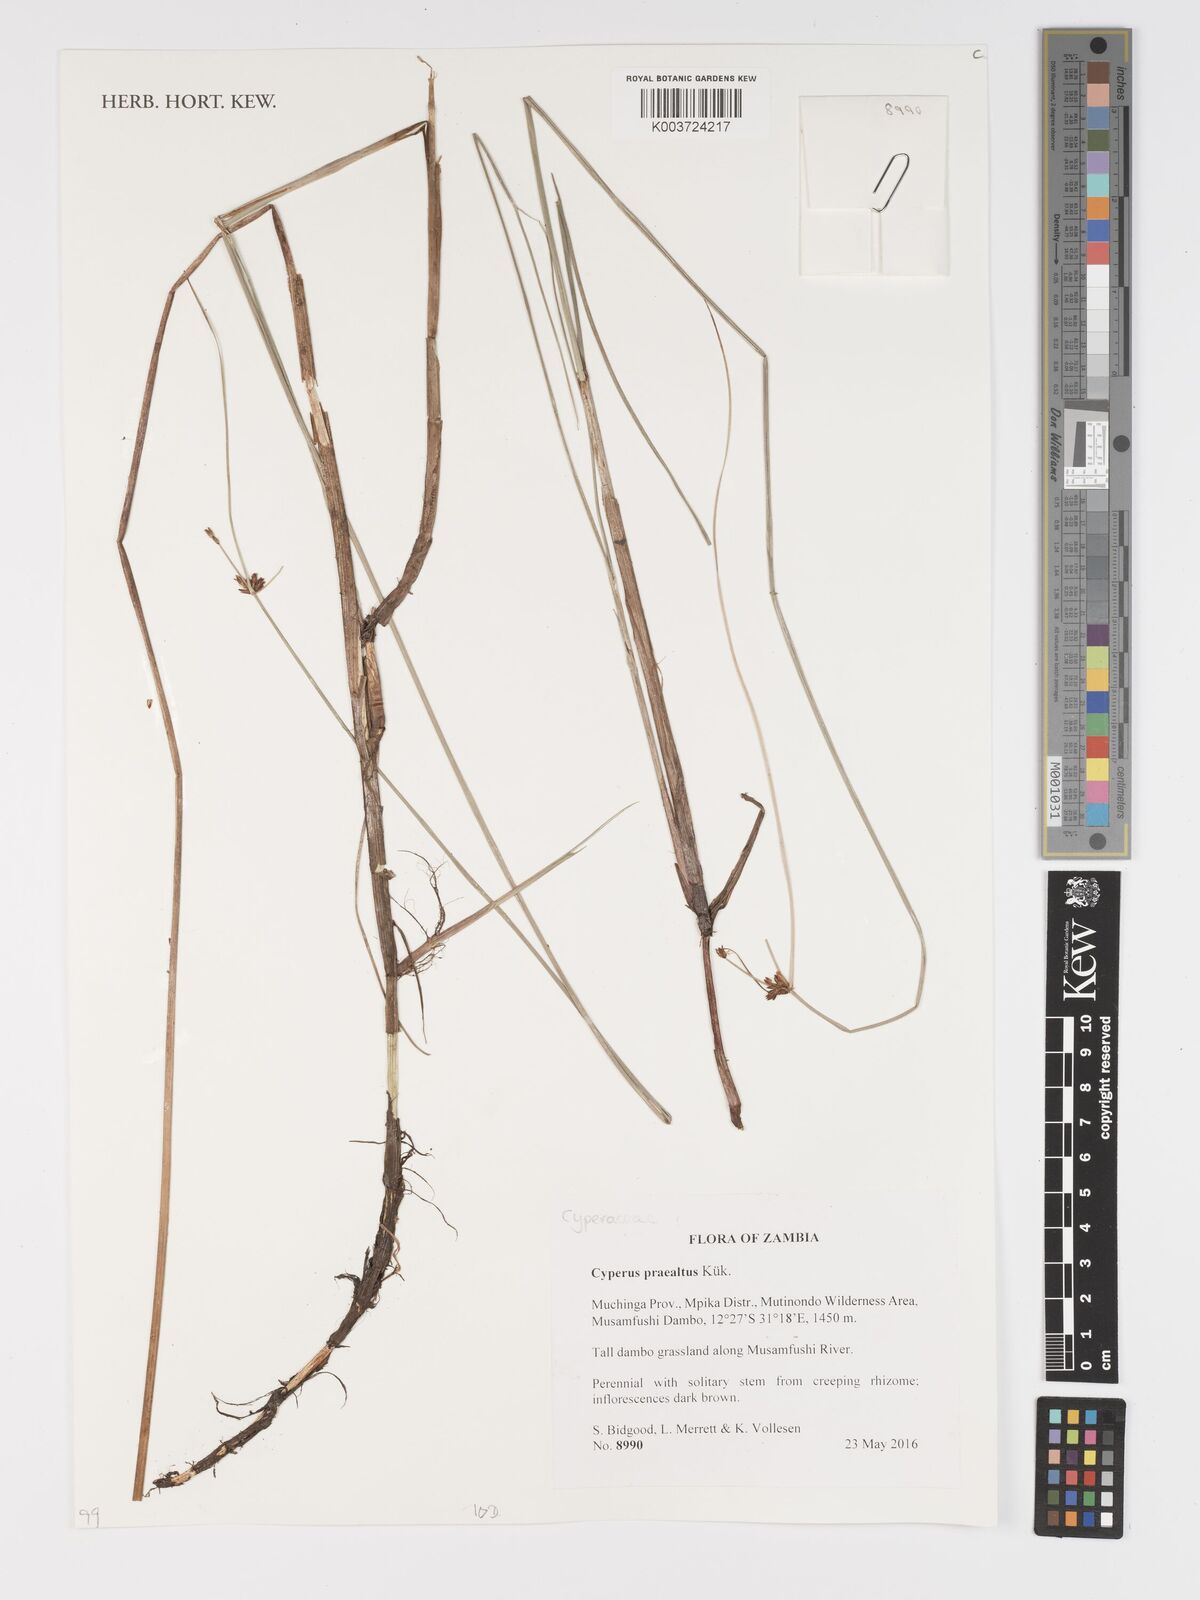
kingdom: Plantae
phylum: Tracheophyta
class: Liliopsida
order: Poales
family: Cyperaceae
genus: Cyperus
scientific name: Cyperus praealtus
